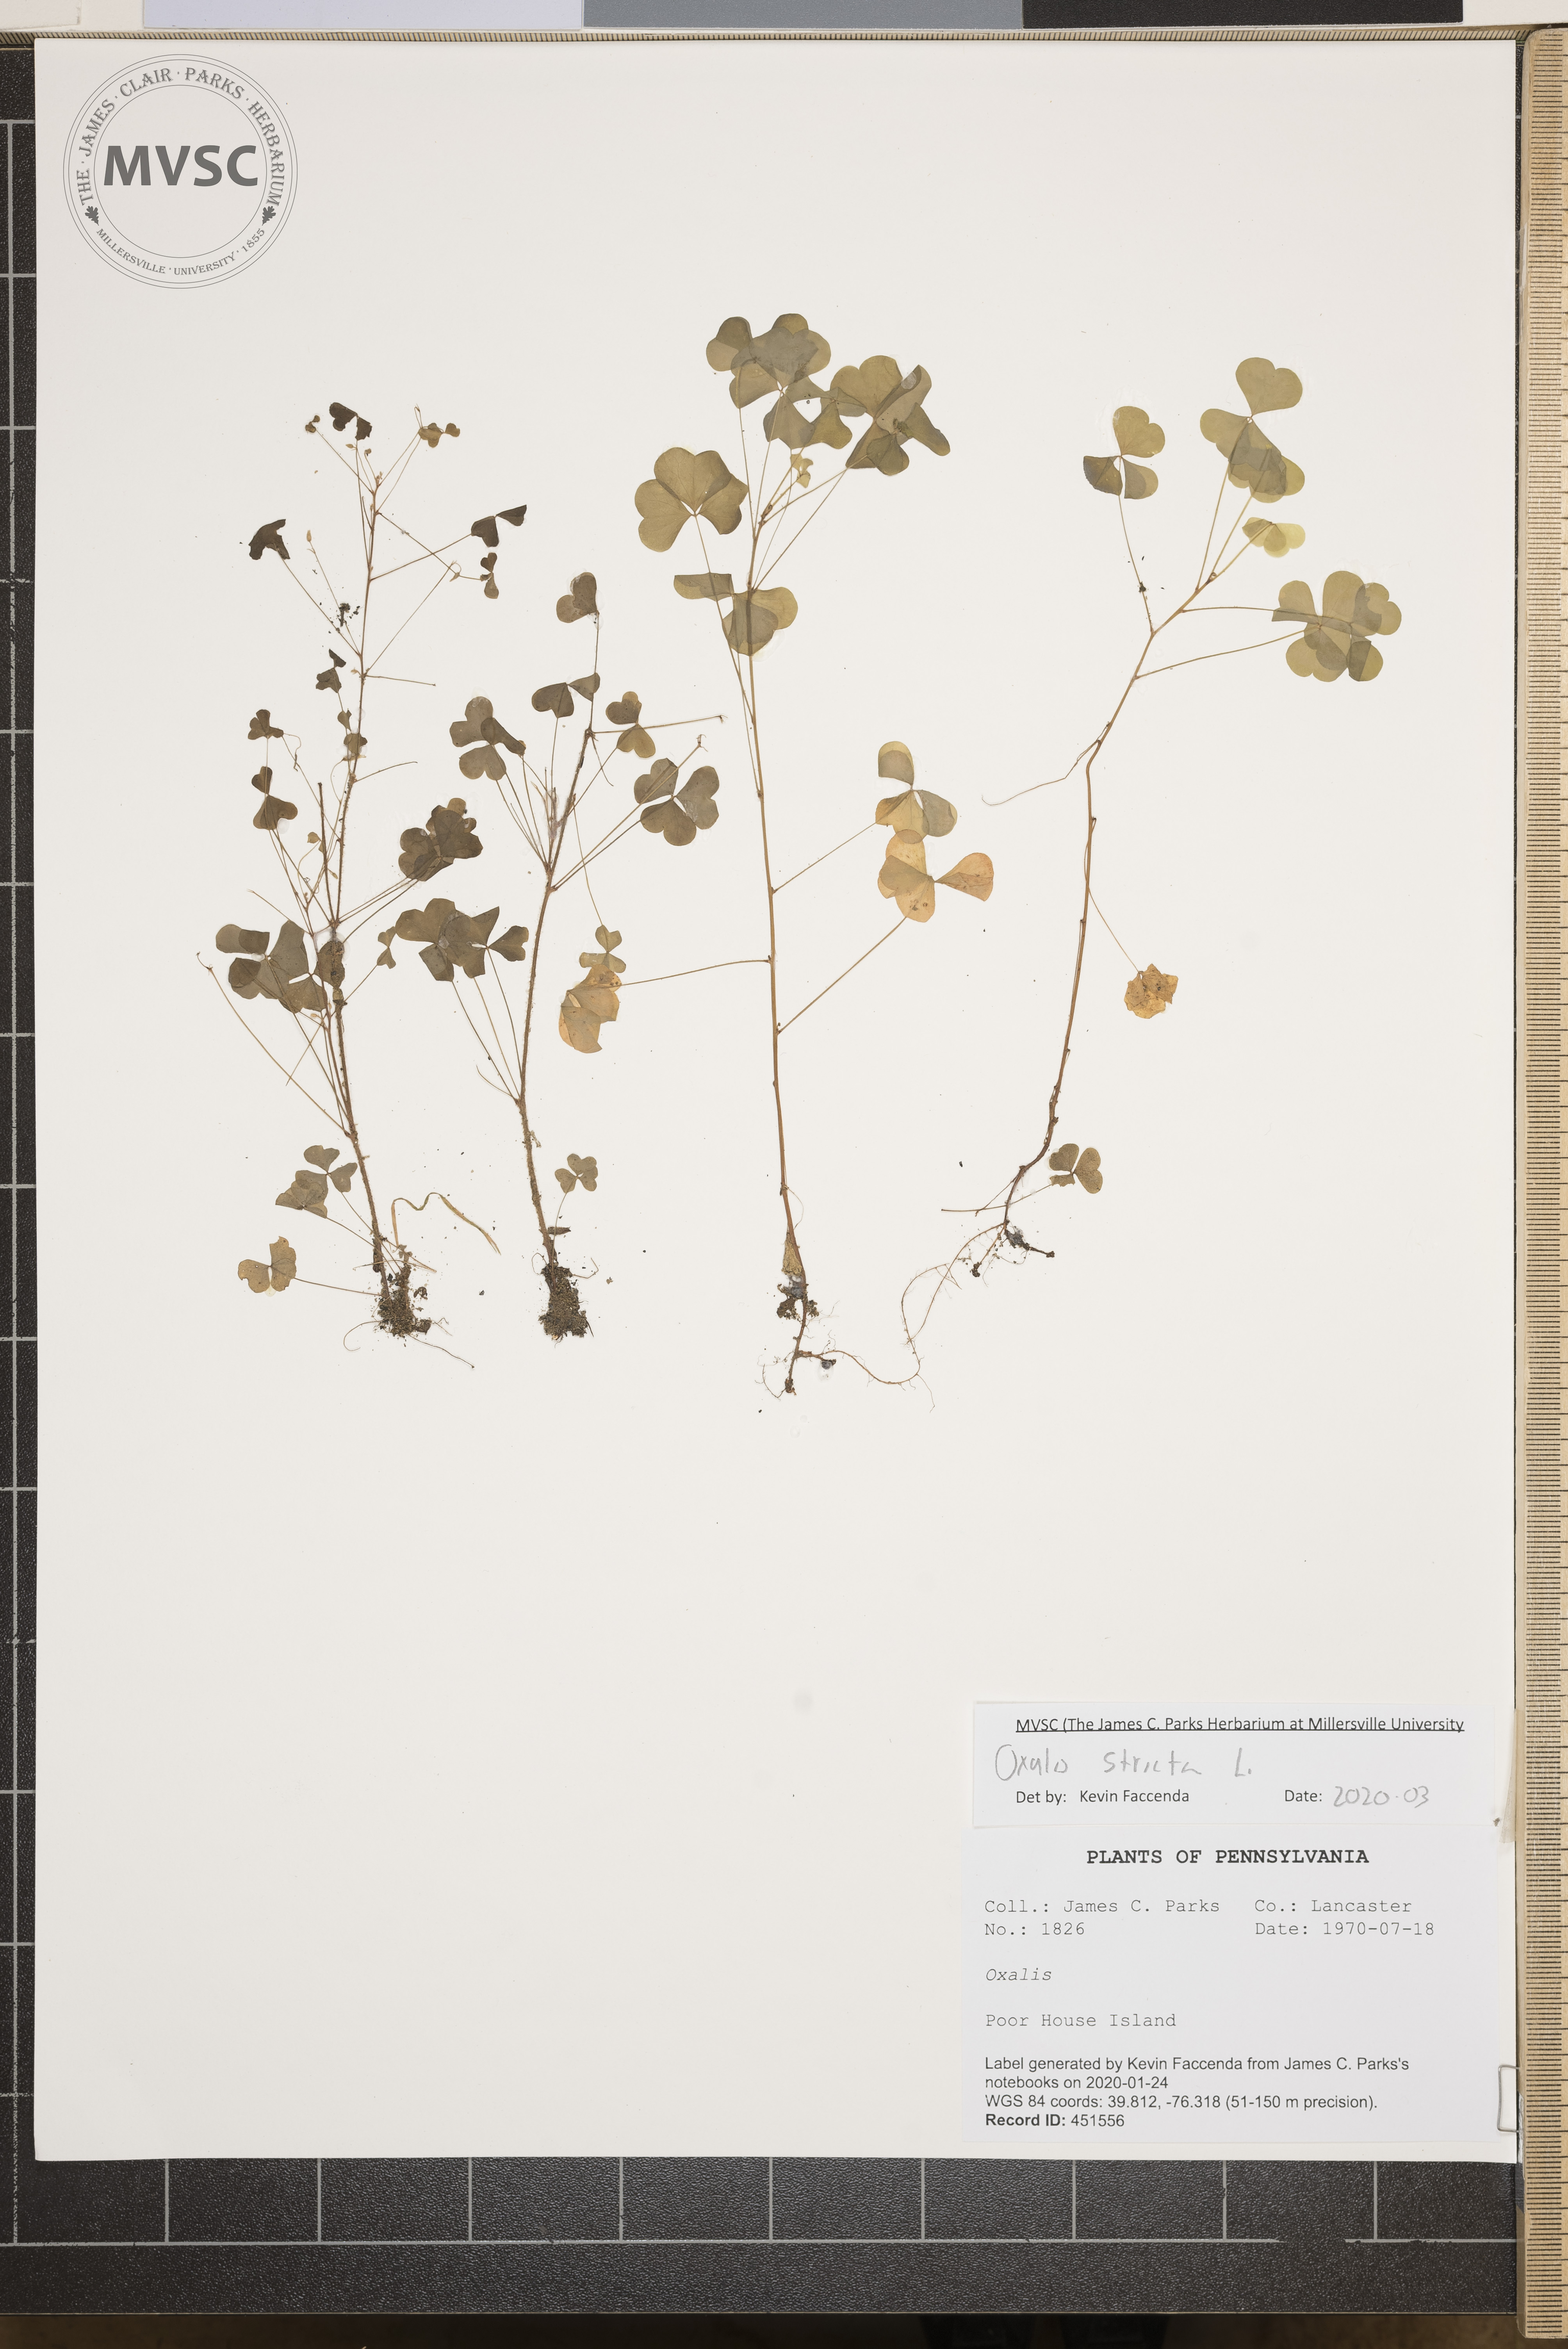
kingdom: Plantae
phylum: Tracheophyta
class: Magnoliopsida
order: Oxalidales
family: Oxalidaceae
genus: Oxalis
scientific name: Oxalis stricta
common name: Upright yellow-sorrel
